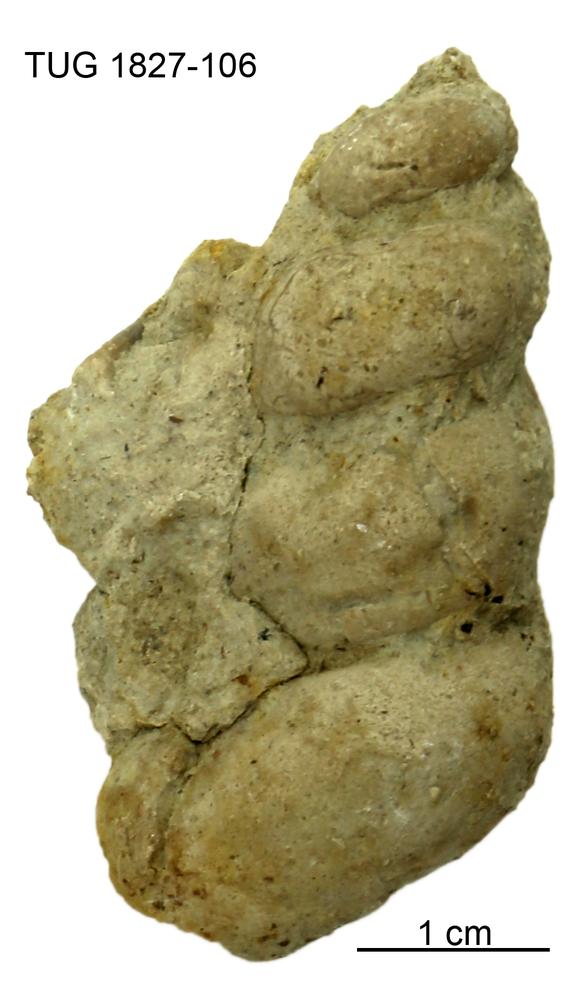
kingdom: Animalia
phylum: Mollusca
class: Gastropoda
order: Pleurotomariida
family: Murchisoniidae
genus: Murchisonia
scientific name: Murchisonia scrobiculata
